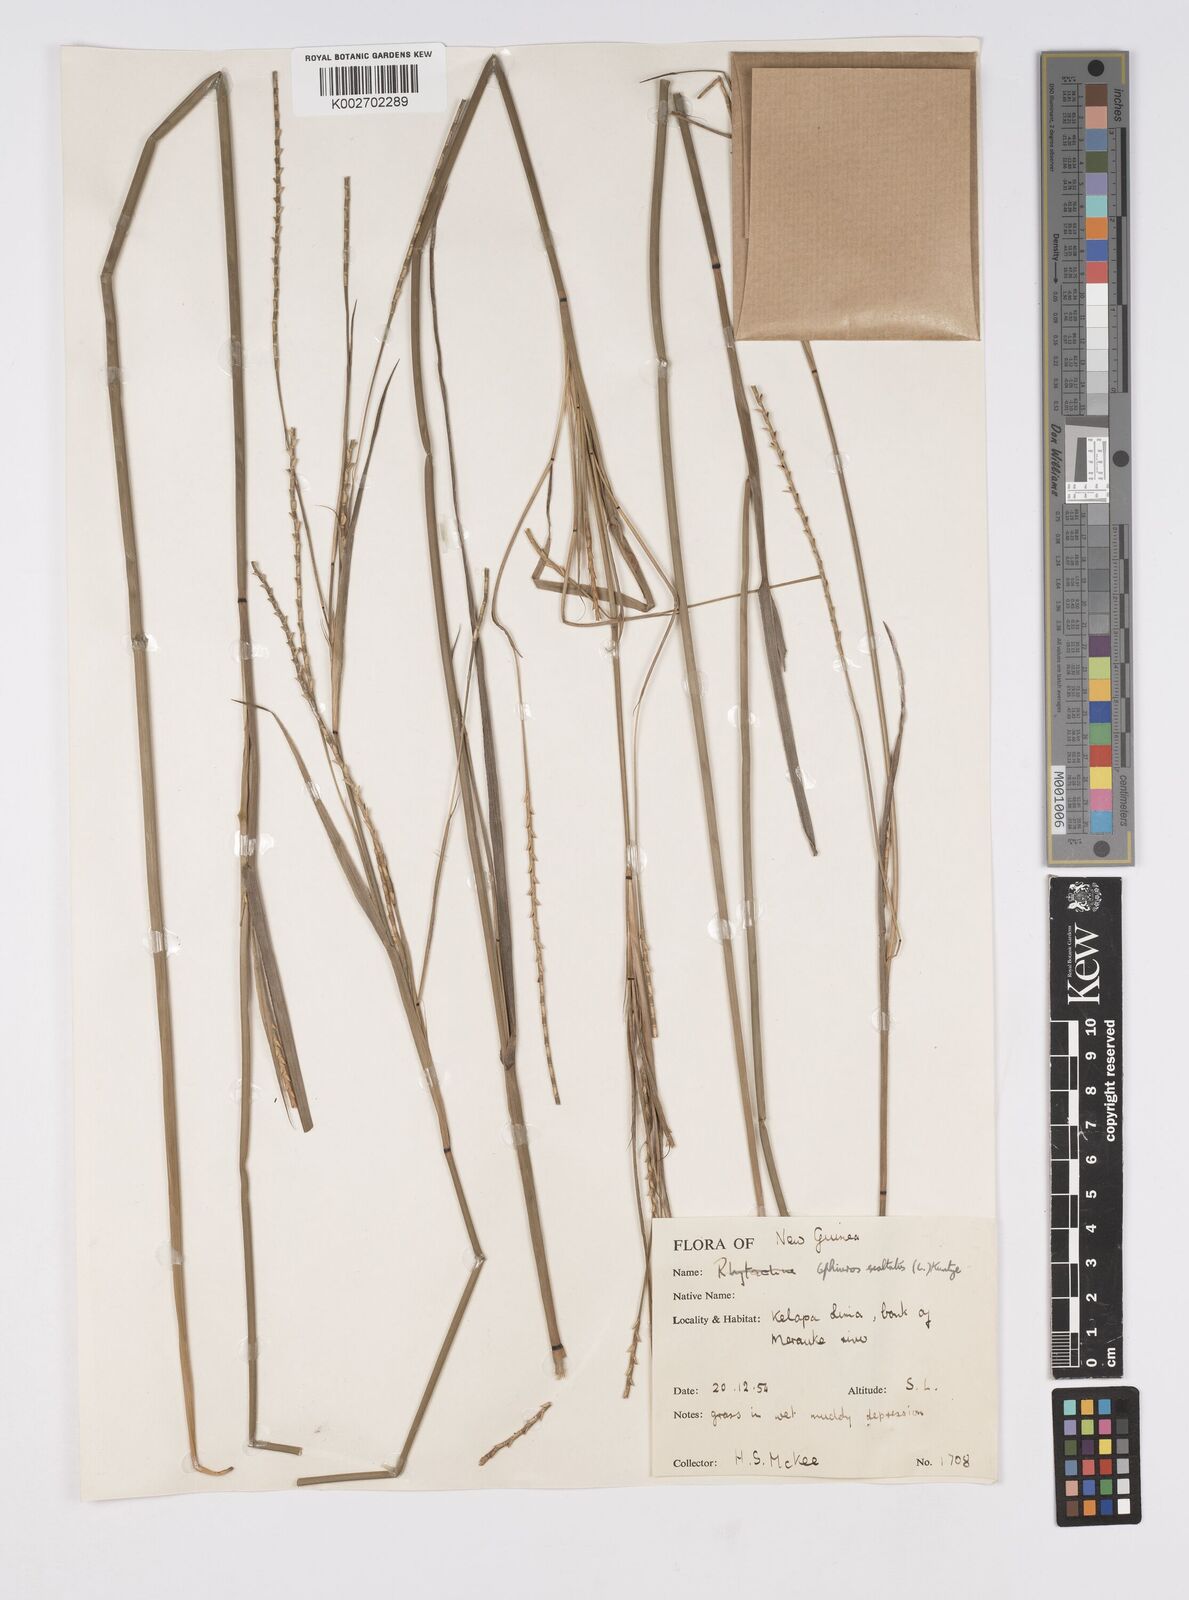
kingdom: Plantae
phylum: Tracheophyta
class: Liliopsida
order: Poales
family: Poaceae
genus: Ophiuros
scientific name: Ophiuros exaltatus
